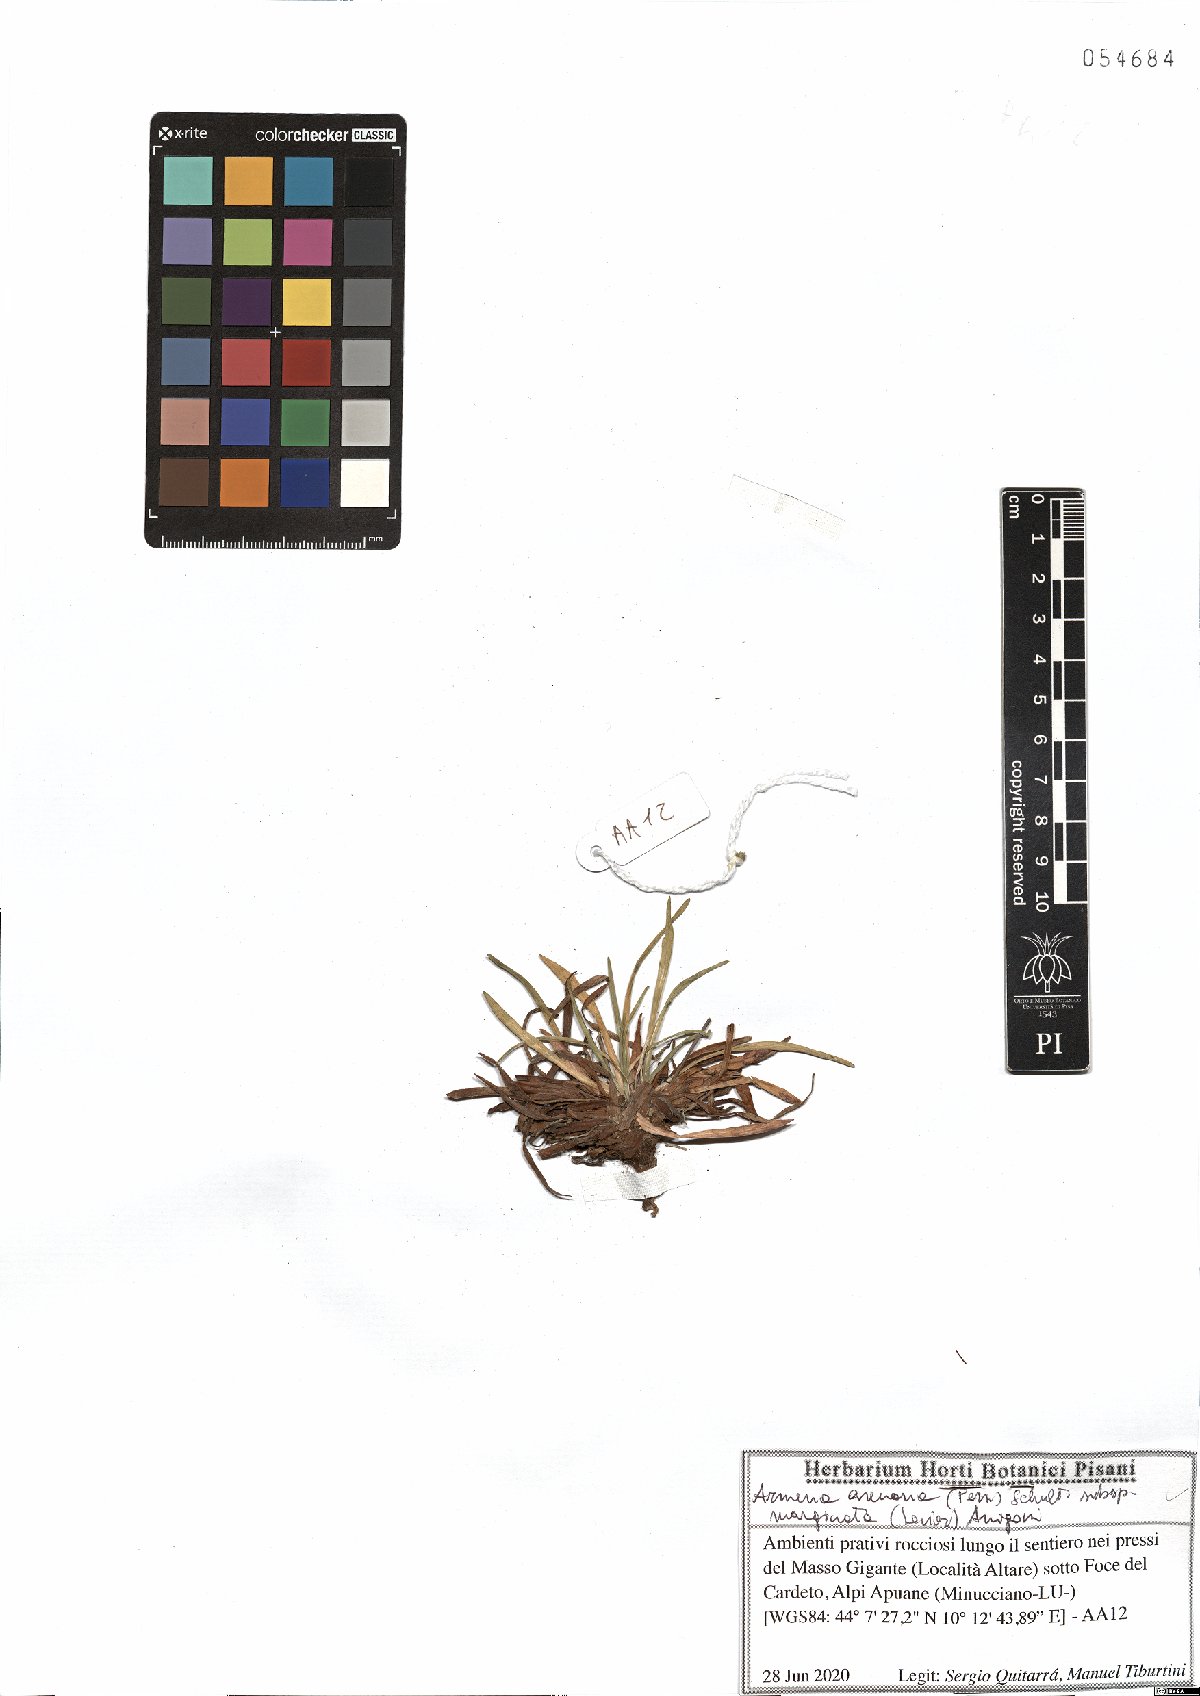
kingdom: Plantae
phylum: Tracheophyta
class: Magnoliopsida
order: Caryophyllales
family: Plumbaginaceae
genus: Armeria
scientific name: Armeria arenaria
